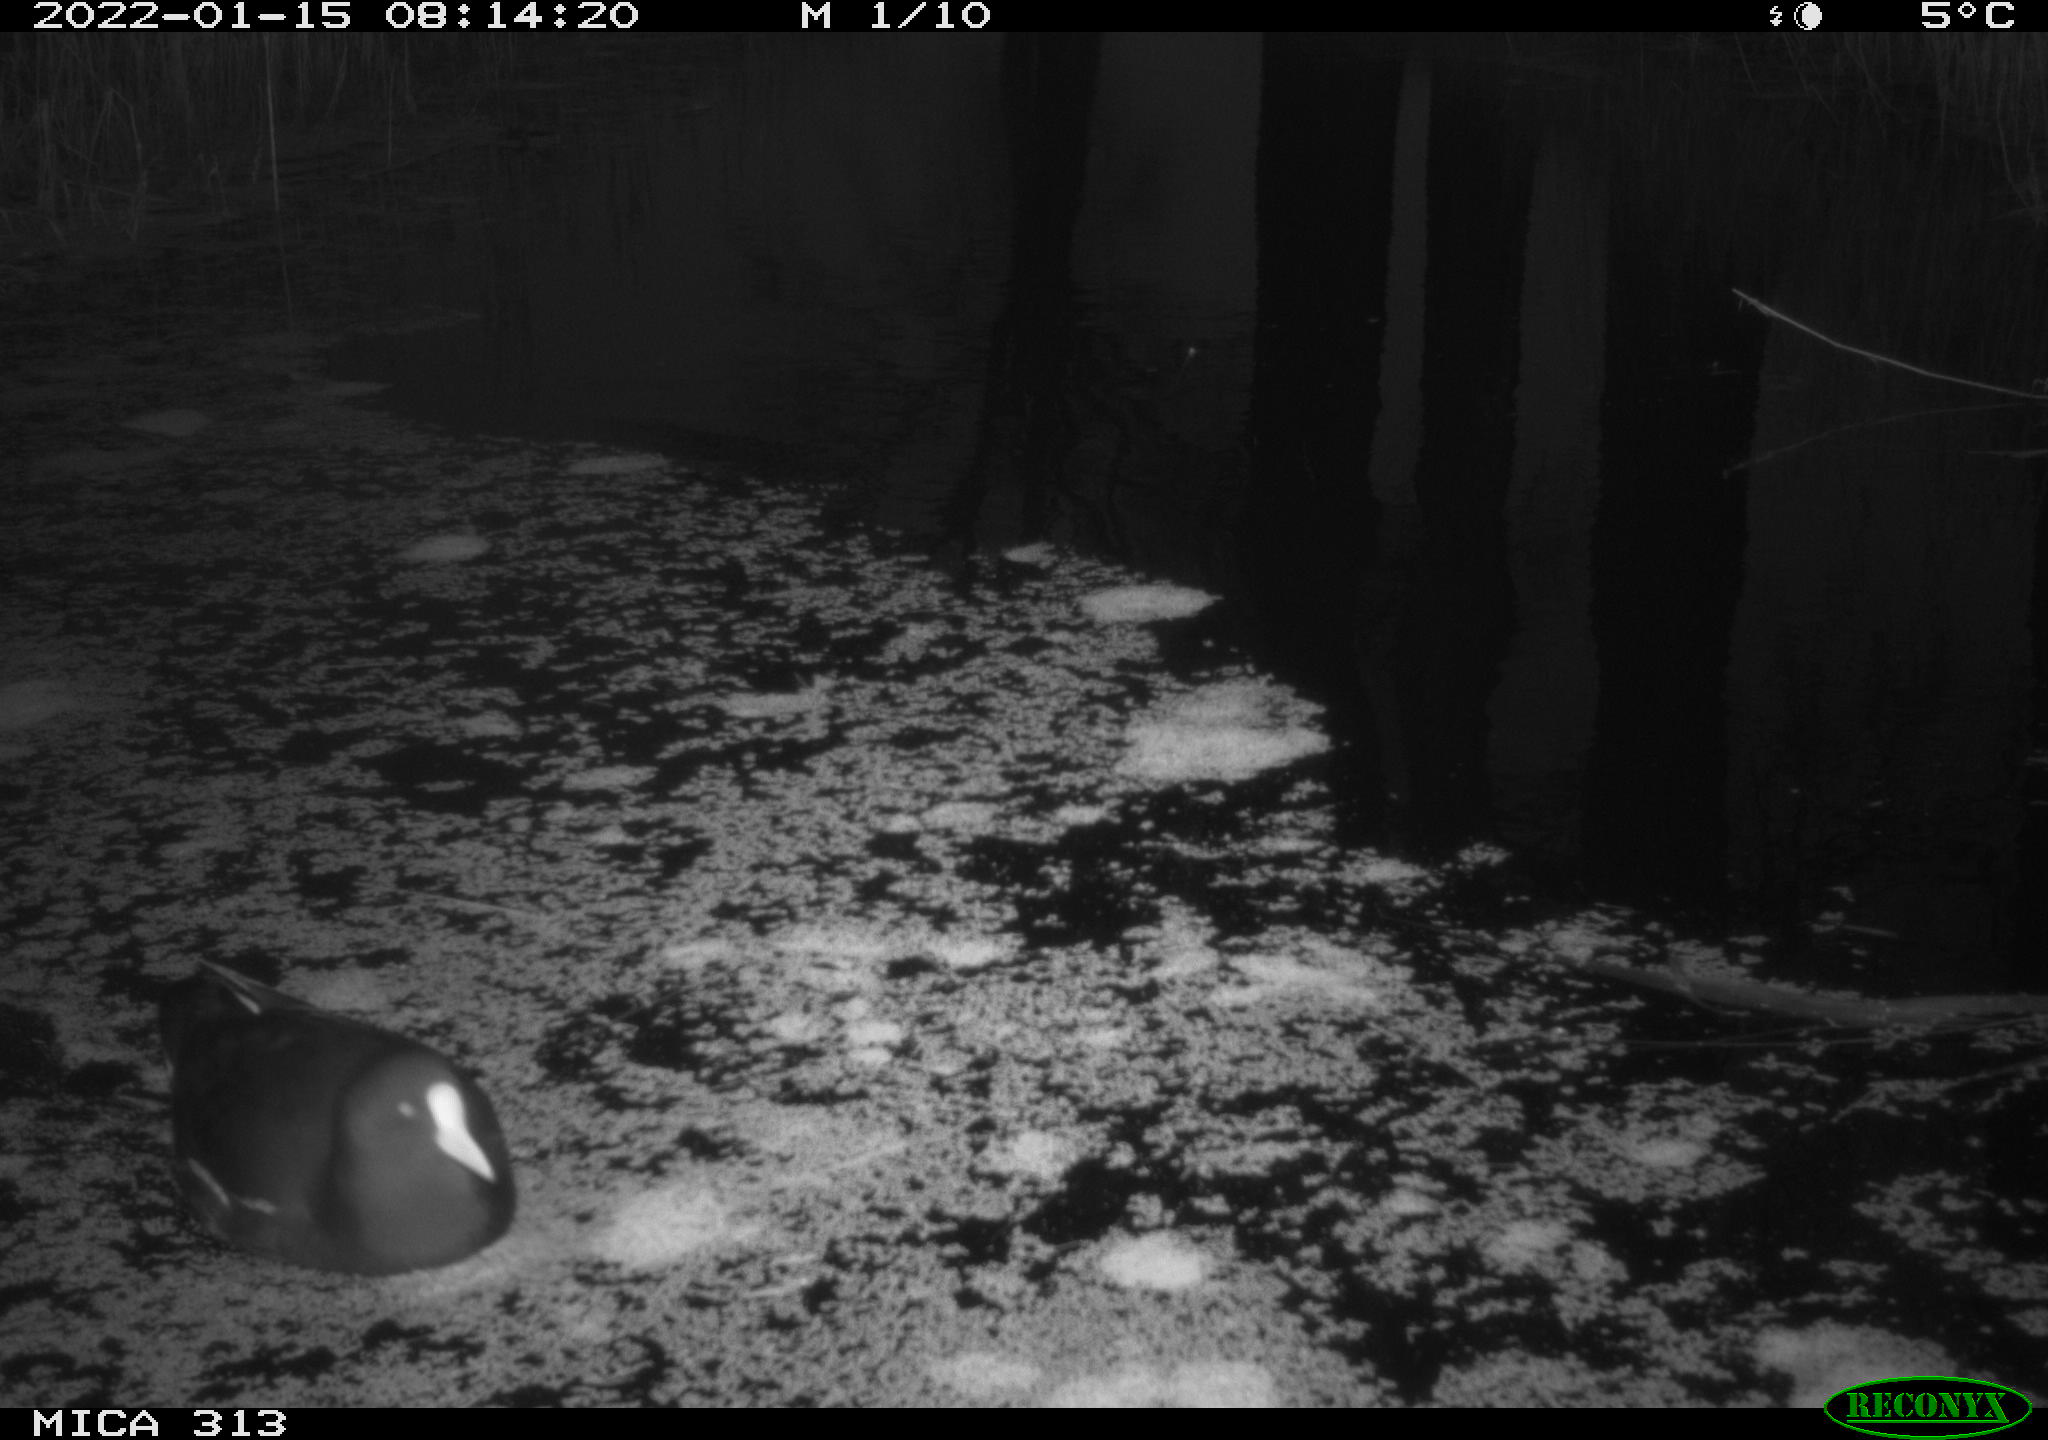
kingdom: Animalia
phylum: Chordata
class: Aves
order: Gruiformes
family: Rallidae
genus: Gallinula
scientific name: Gallinula chloropus
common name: Common moorhen
